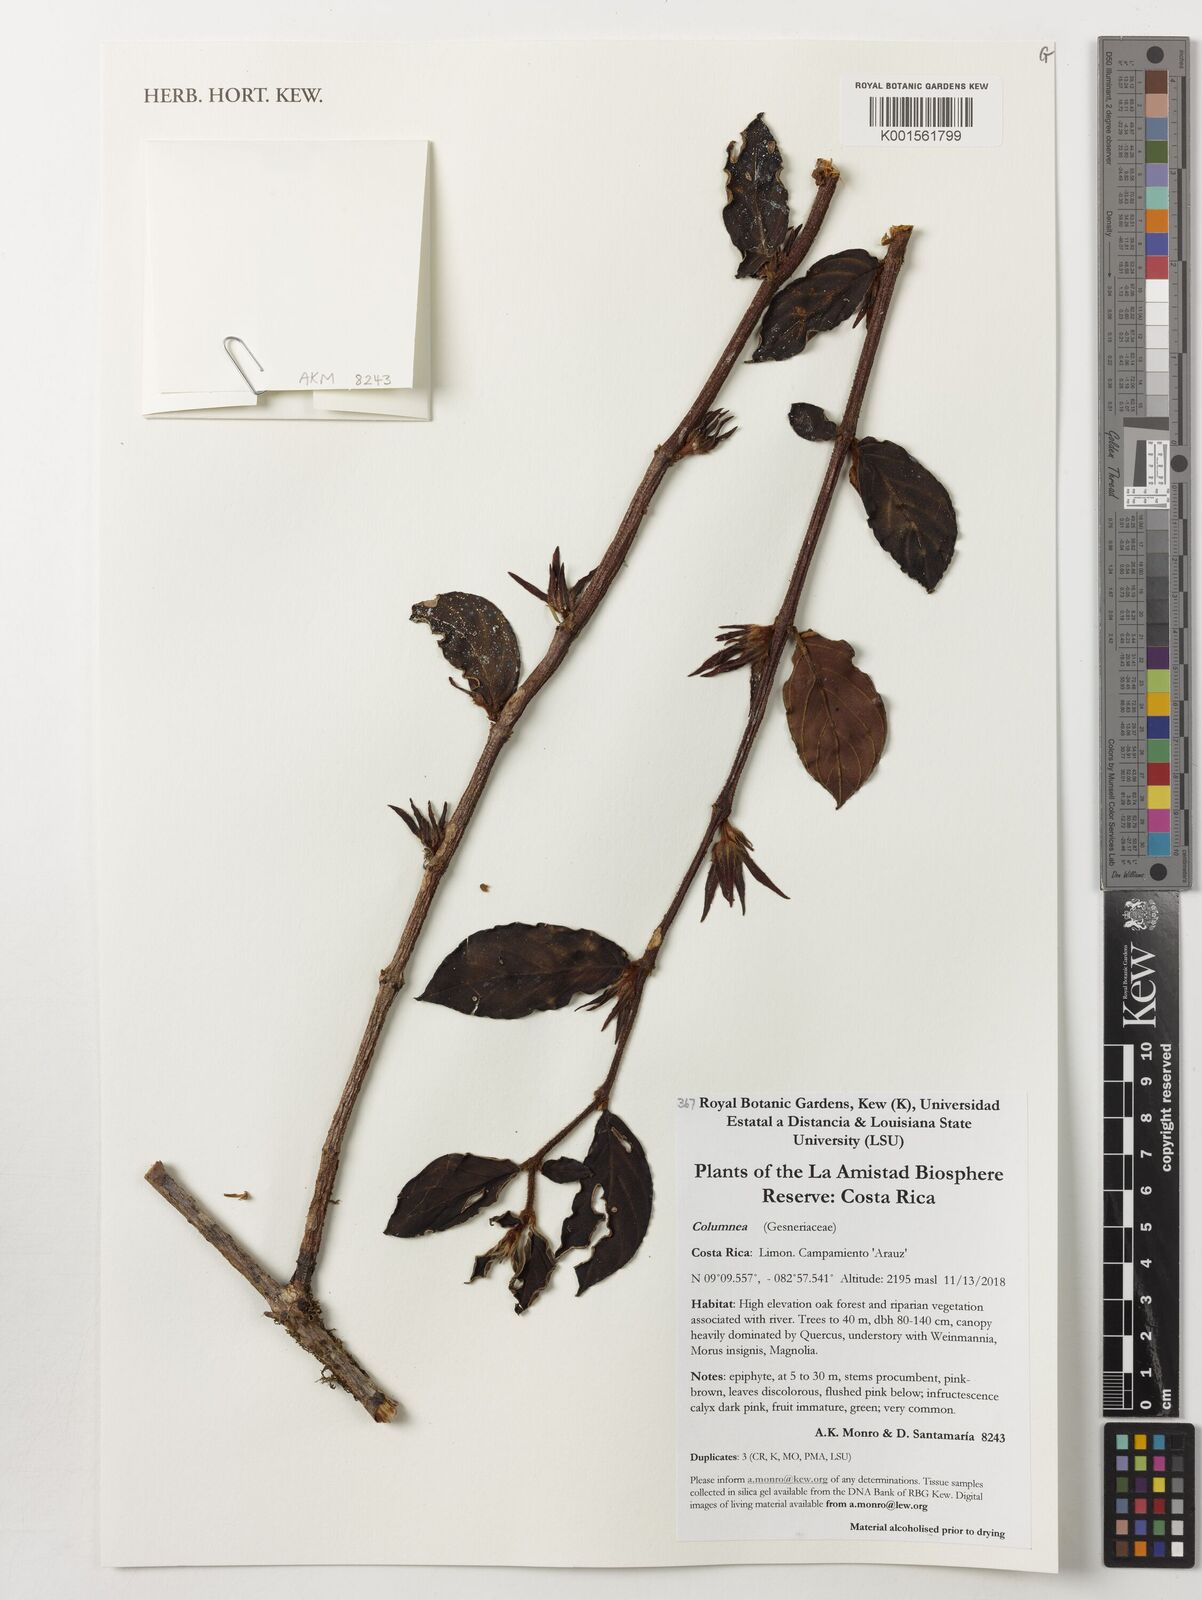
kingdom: Plantae
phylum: Tracheophyta
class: Magnoliopsida
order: Lamiales
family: Gesneriaceae
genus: Columnea
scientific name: Columnea
